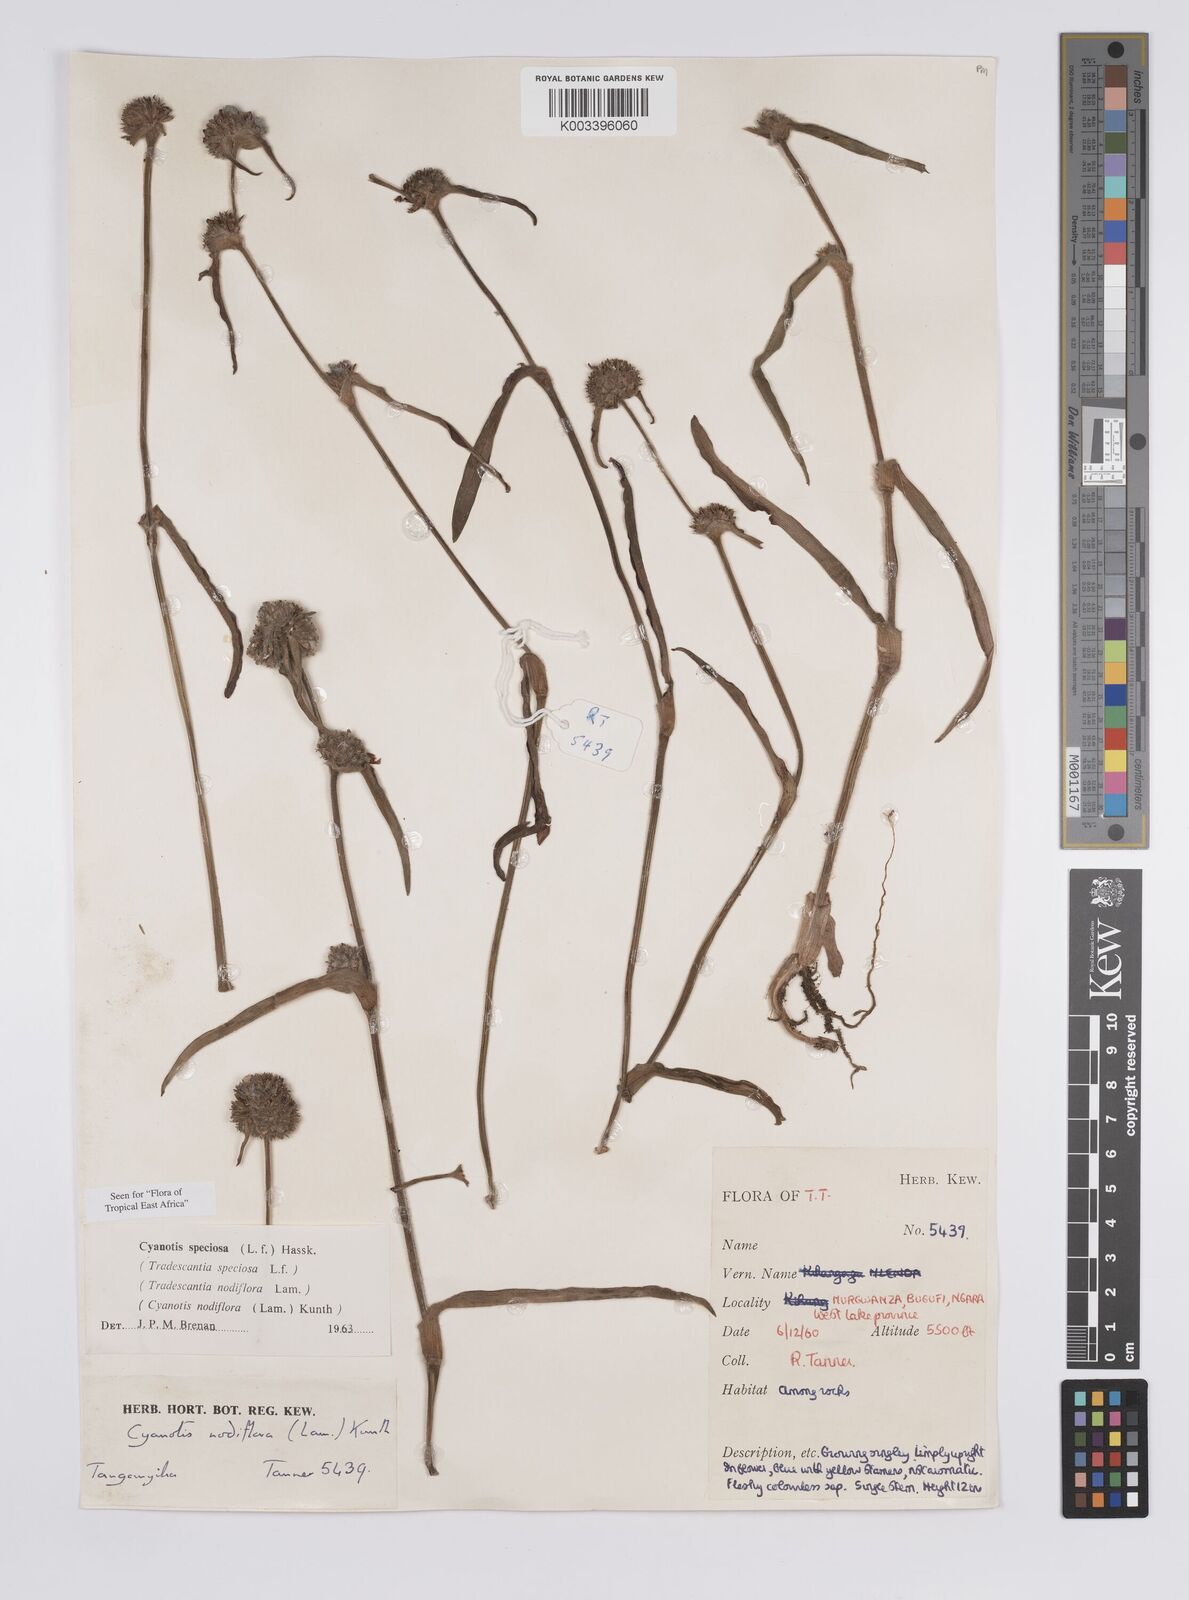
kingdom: Plantae
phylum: Tracheophyta
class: Liliopsida
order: Commelinales
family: Commelinaceae
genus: Cyanotis
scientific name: Cyanotis speciosa
